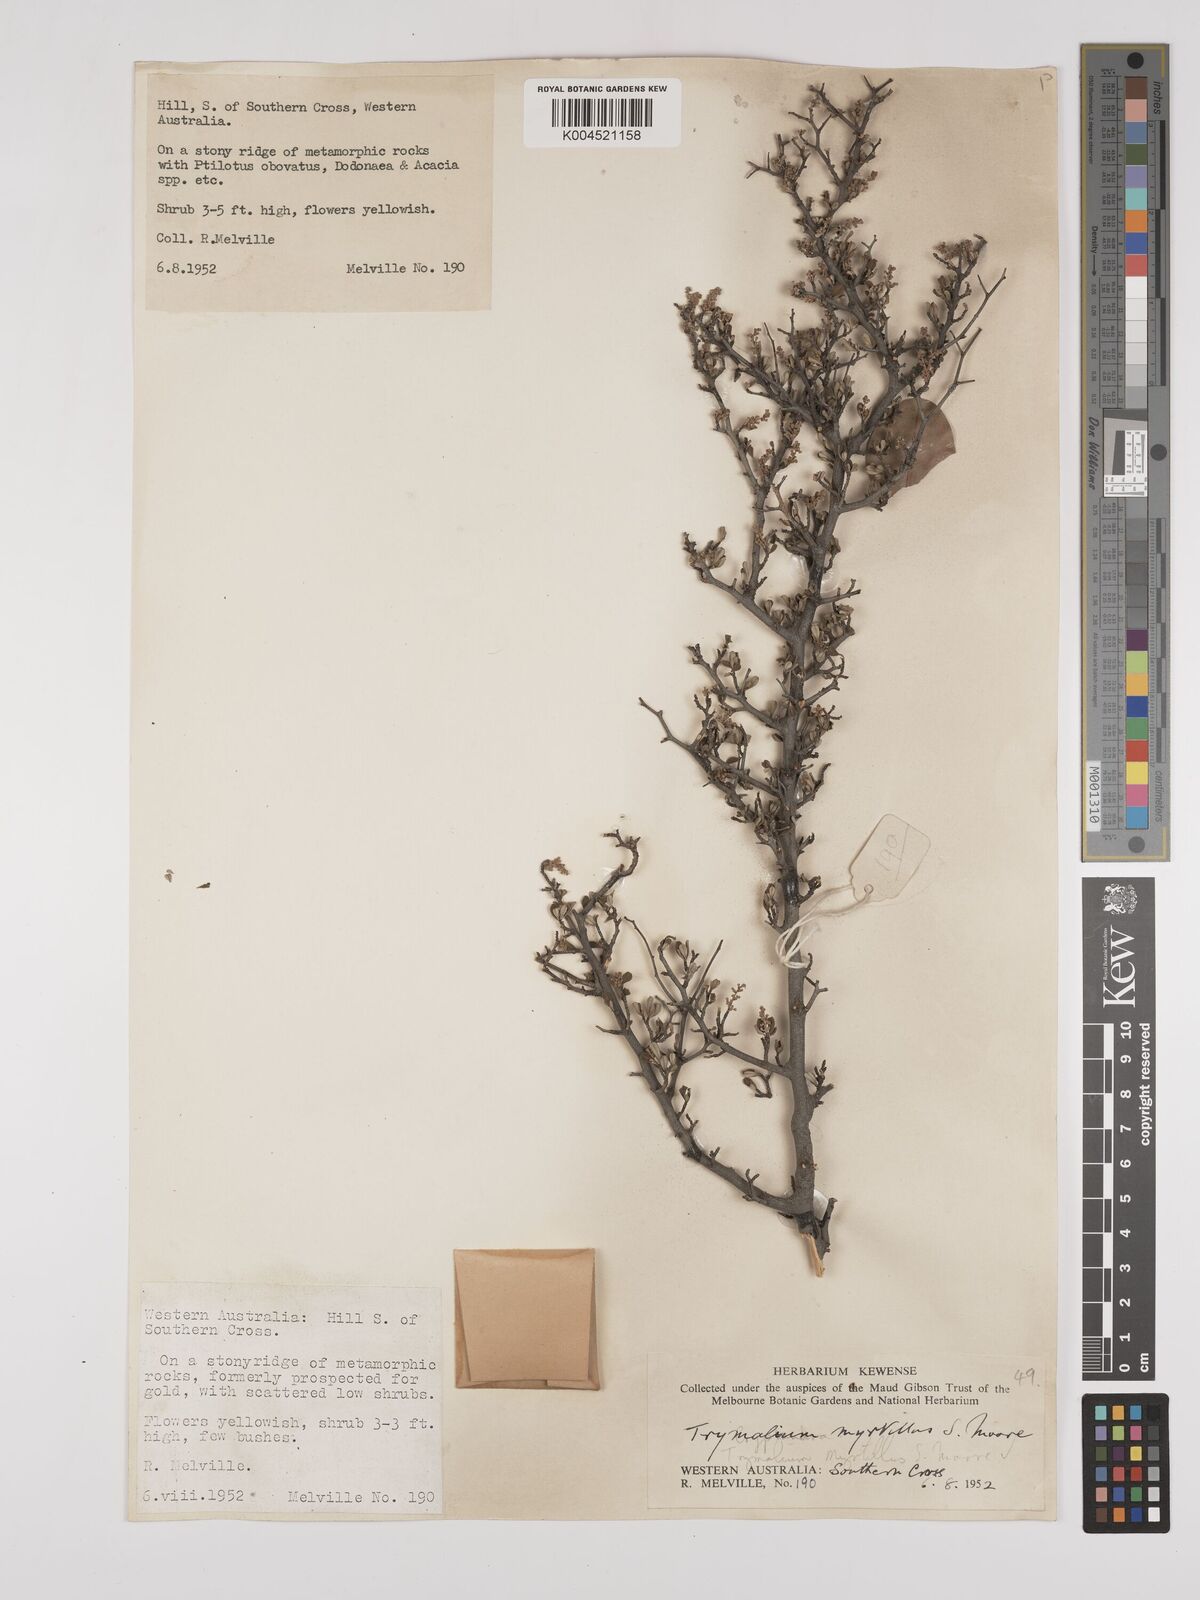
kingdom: Plantae
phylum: Tracheophyta
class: Magnoliopsida
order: Rosales
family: Rhamnaceae
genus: Trymalium
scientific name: Trymalium myrtillus
